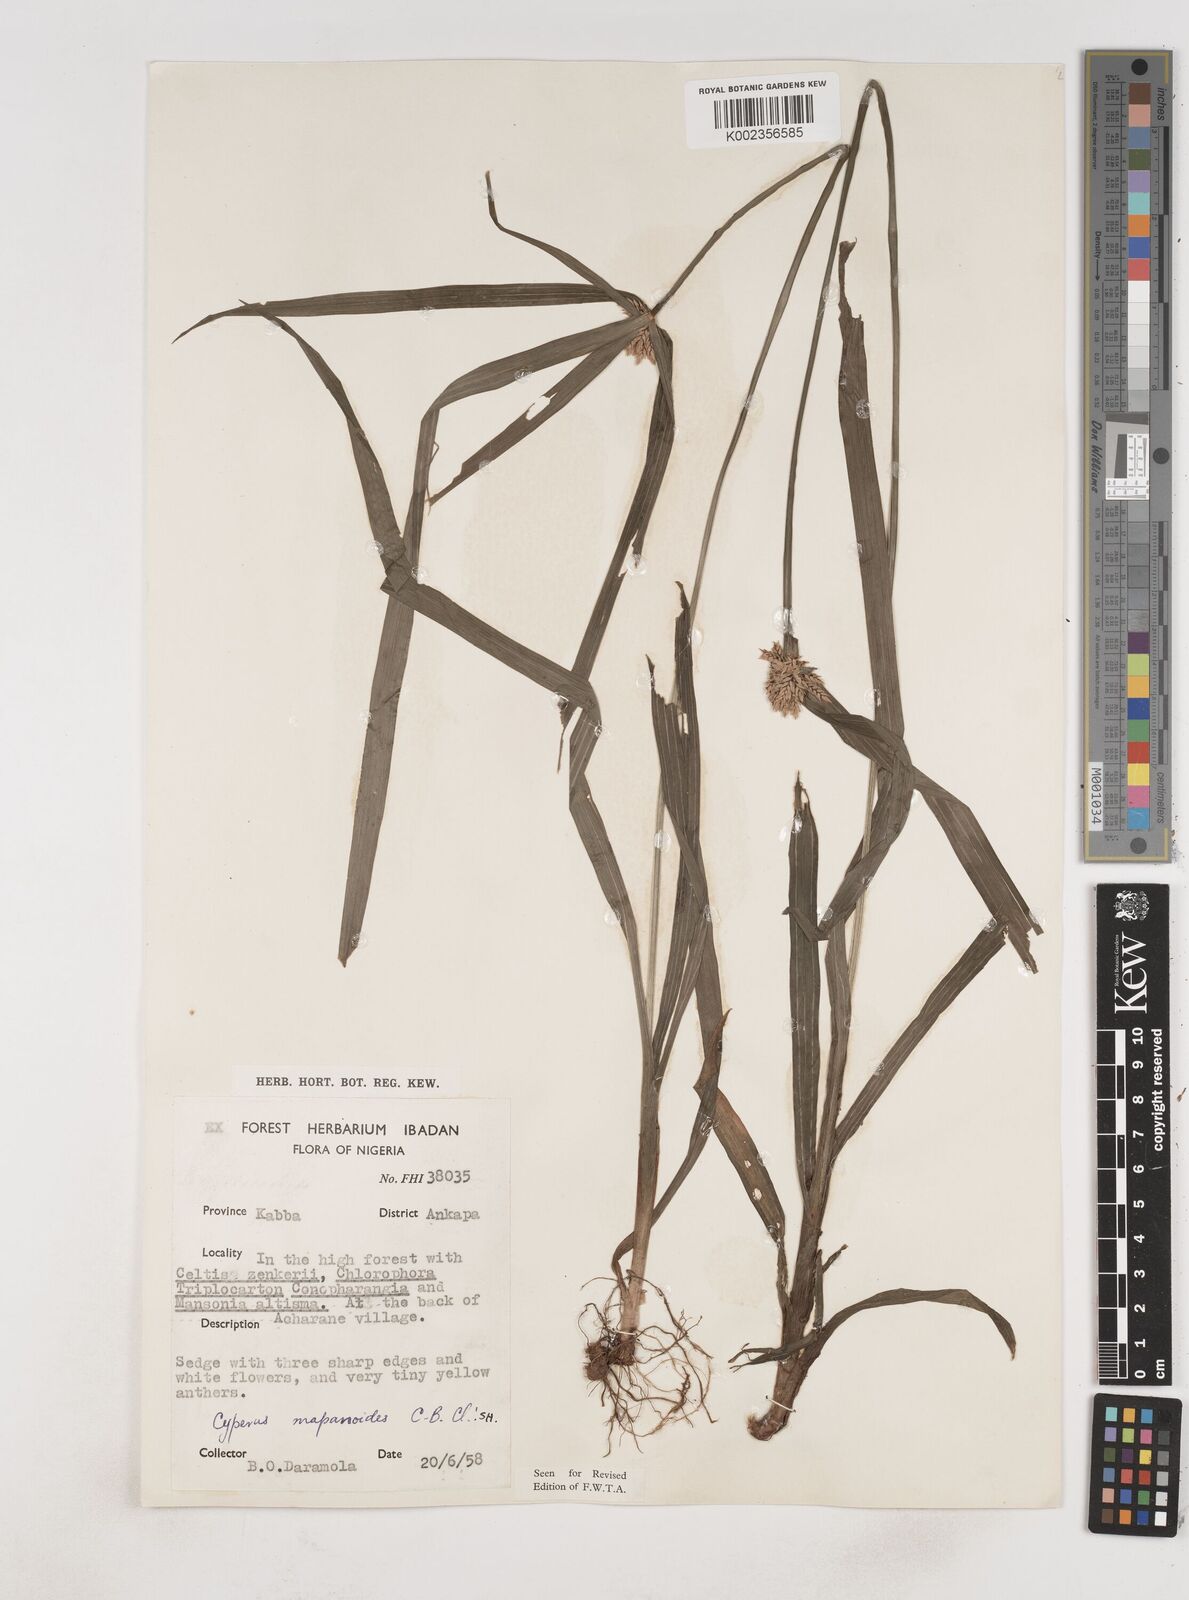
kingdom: Plantae
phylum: Tracheophyta
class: Liliopsida
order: Poales
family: Cyperaceae
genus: Cyperus
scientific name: Cyperus mapanioides
